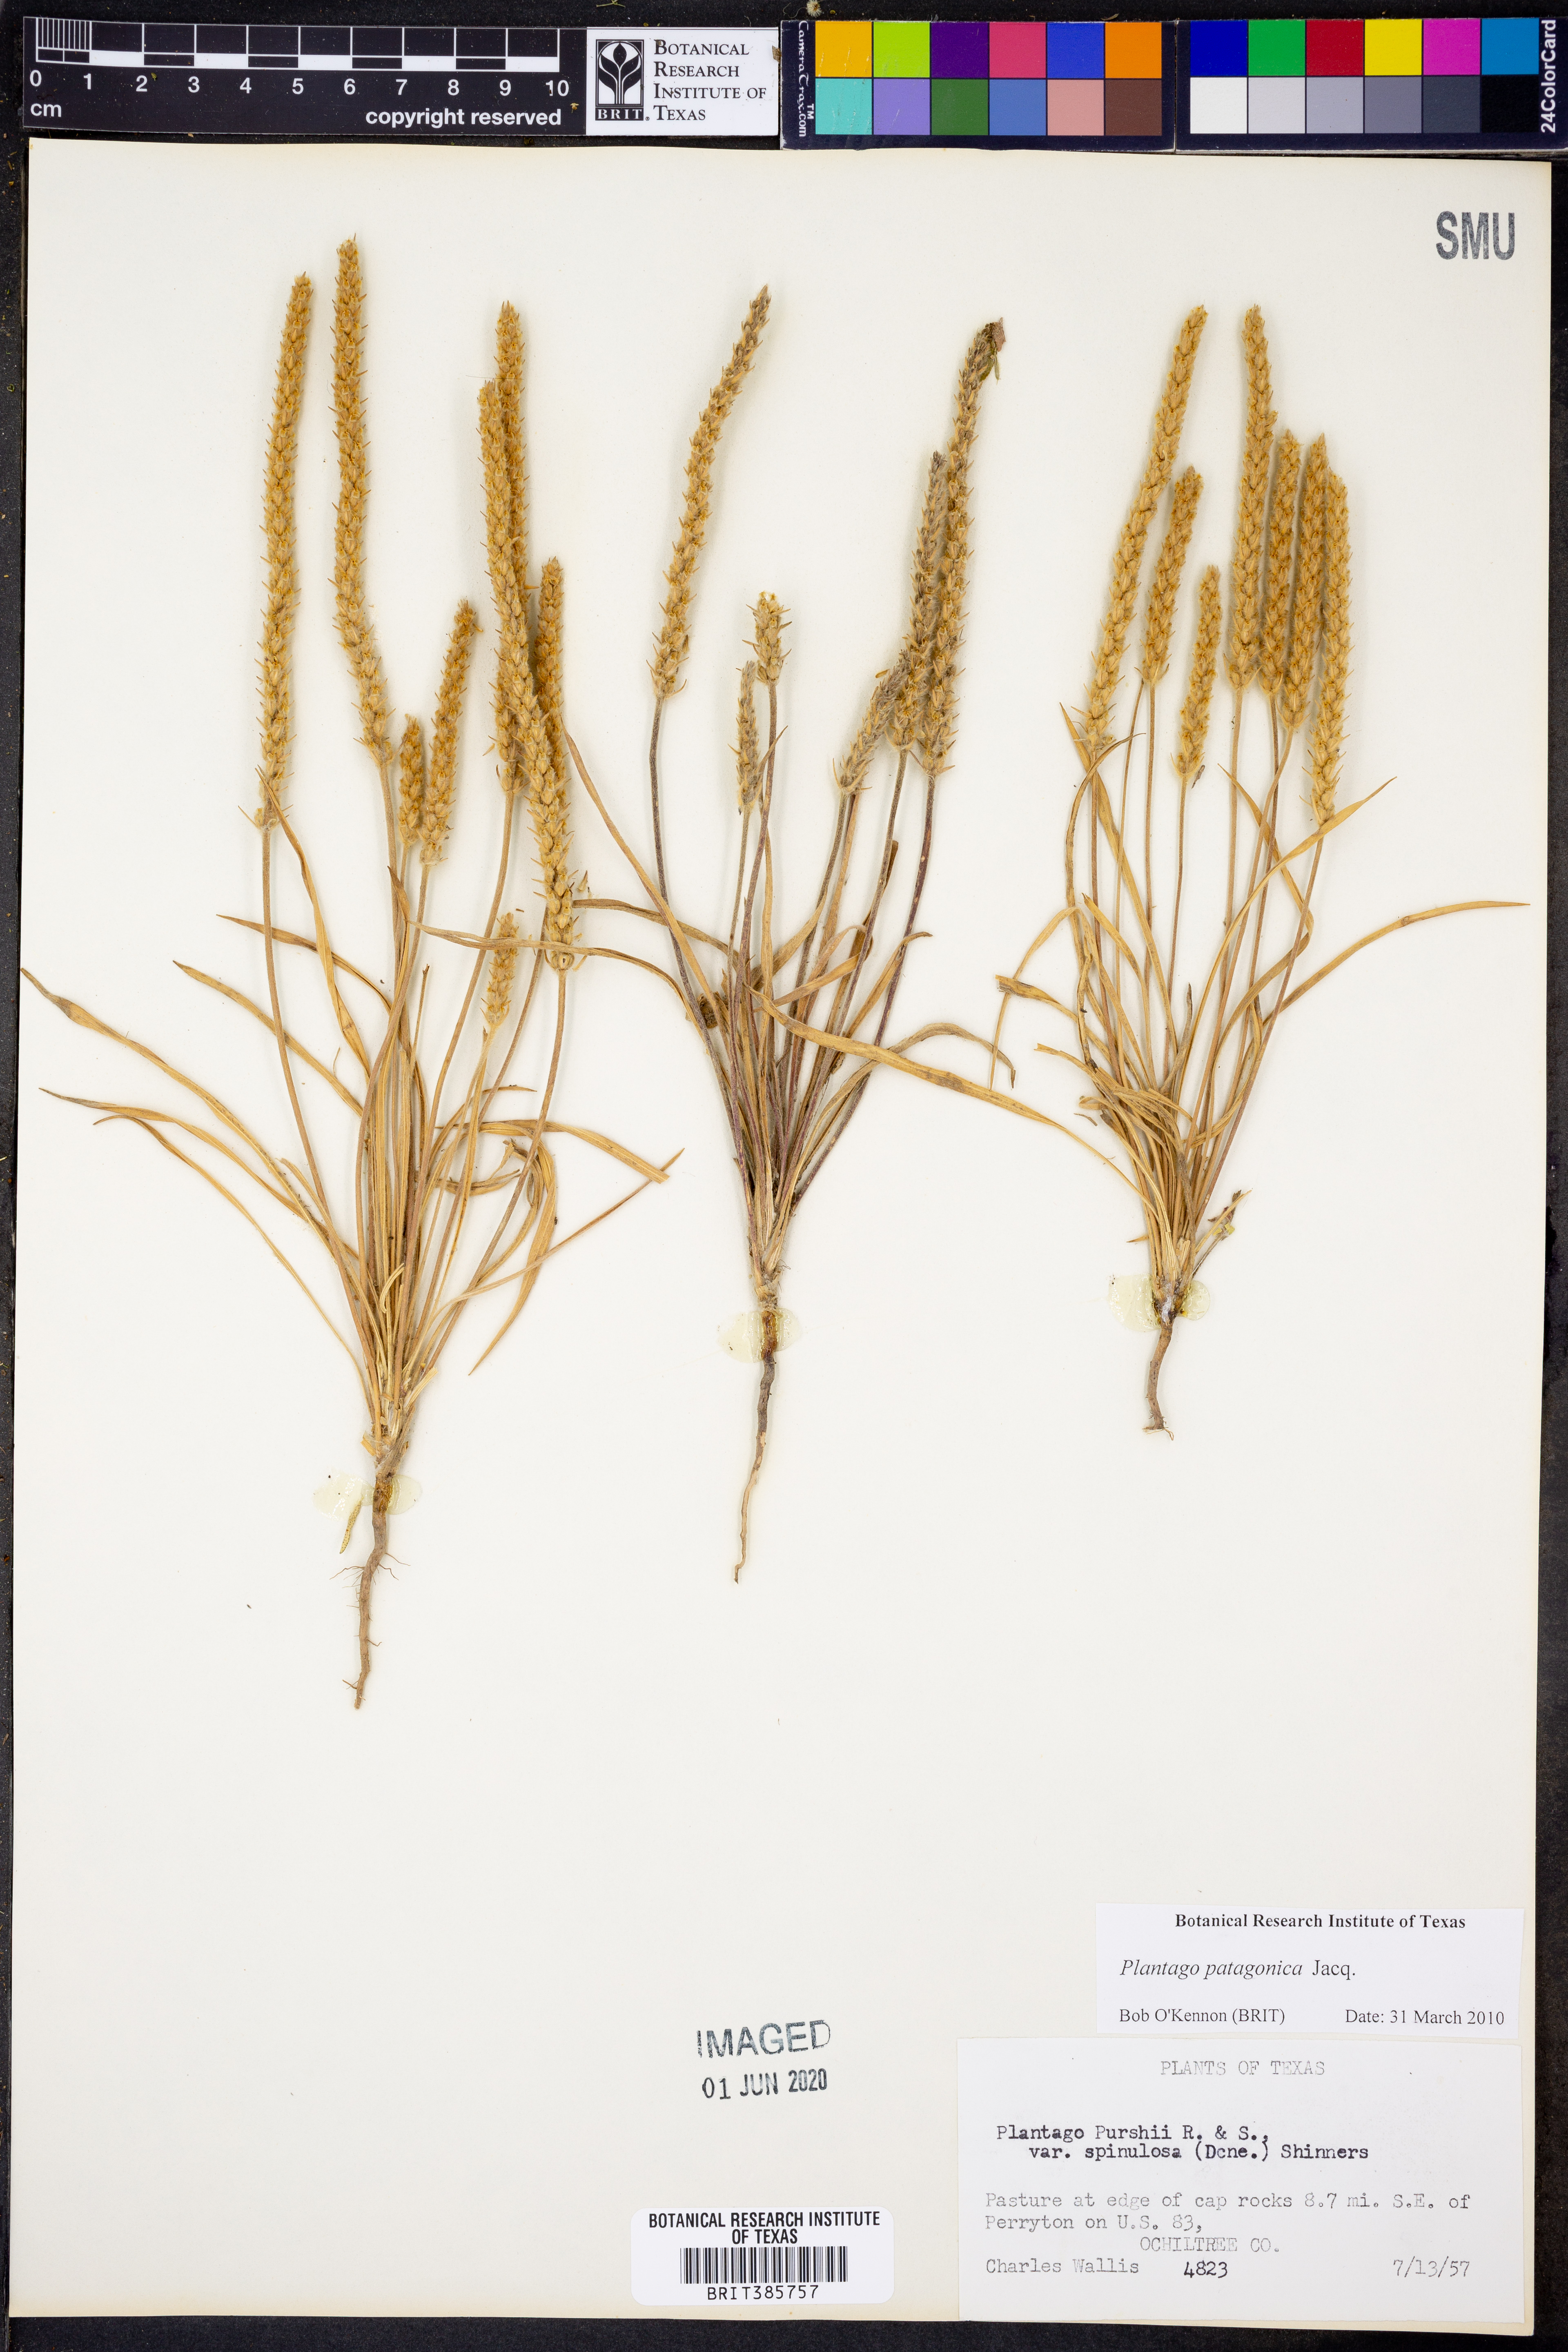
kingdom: Plantae
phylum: Tracheophyta
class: Magnoliopsida
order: Lamiales
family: Plantaginaceae
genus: Plantago
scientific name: Plantago patagonica
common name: Patagonia indian-wheat
